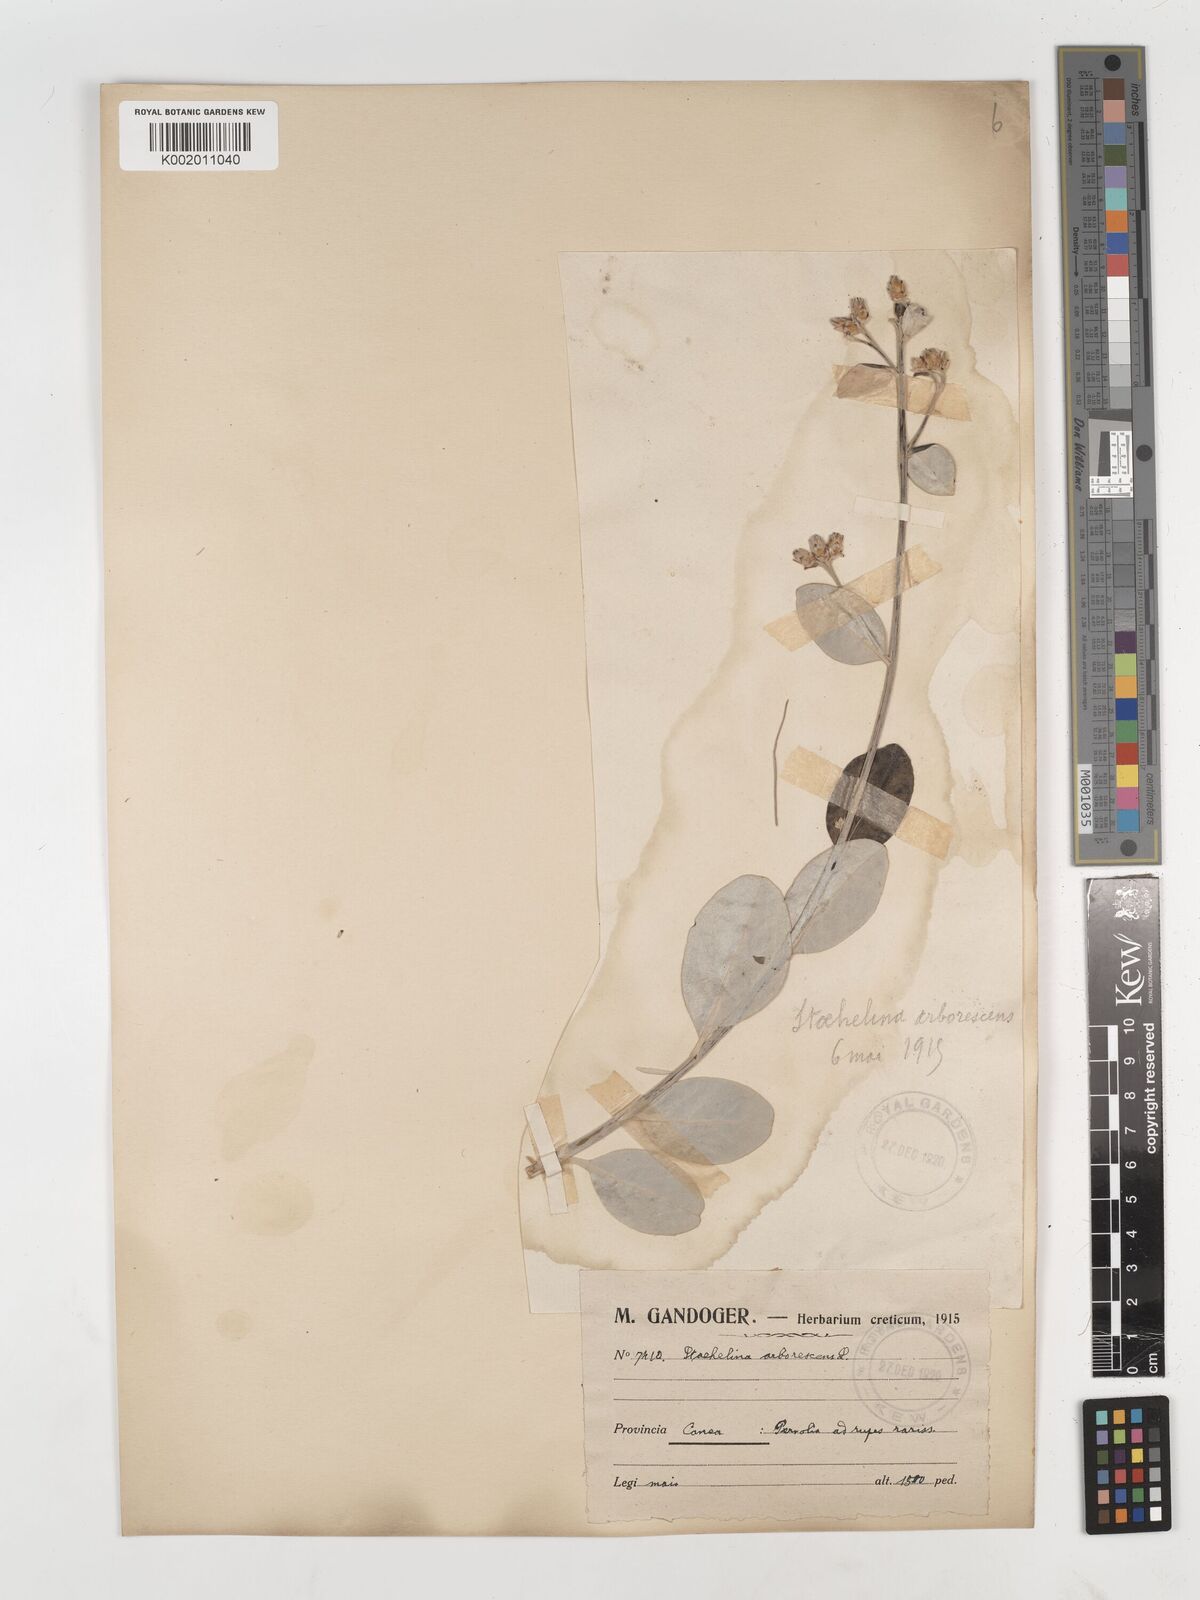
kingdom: Plantae
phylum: Tracheophyta
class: Magnoliopsida
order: Asterales
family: Asteraceae
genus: Staehelina
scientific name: Staehelina petiolata
